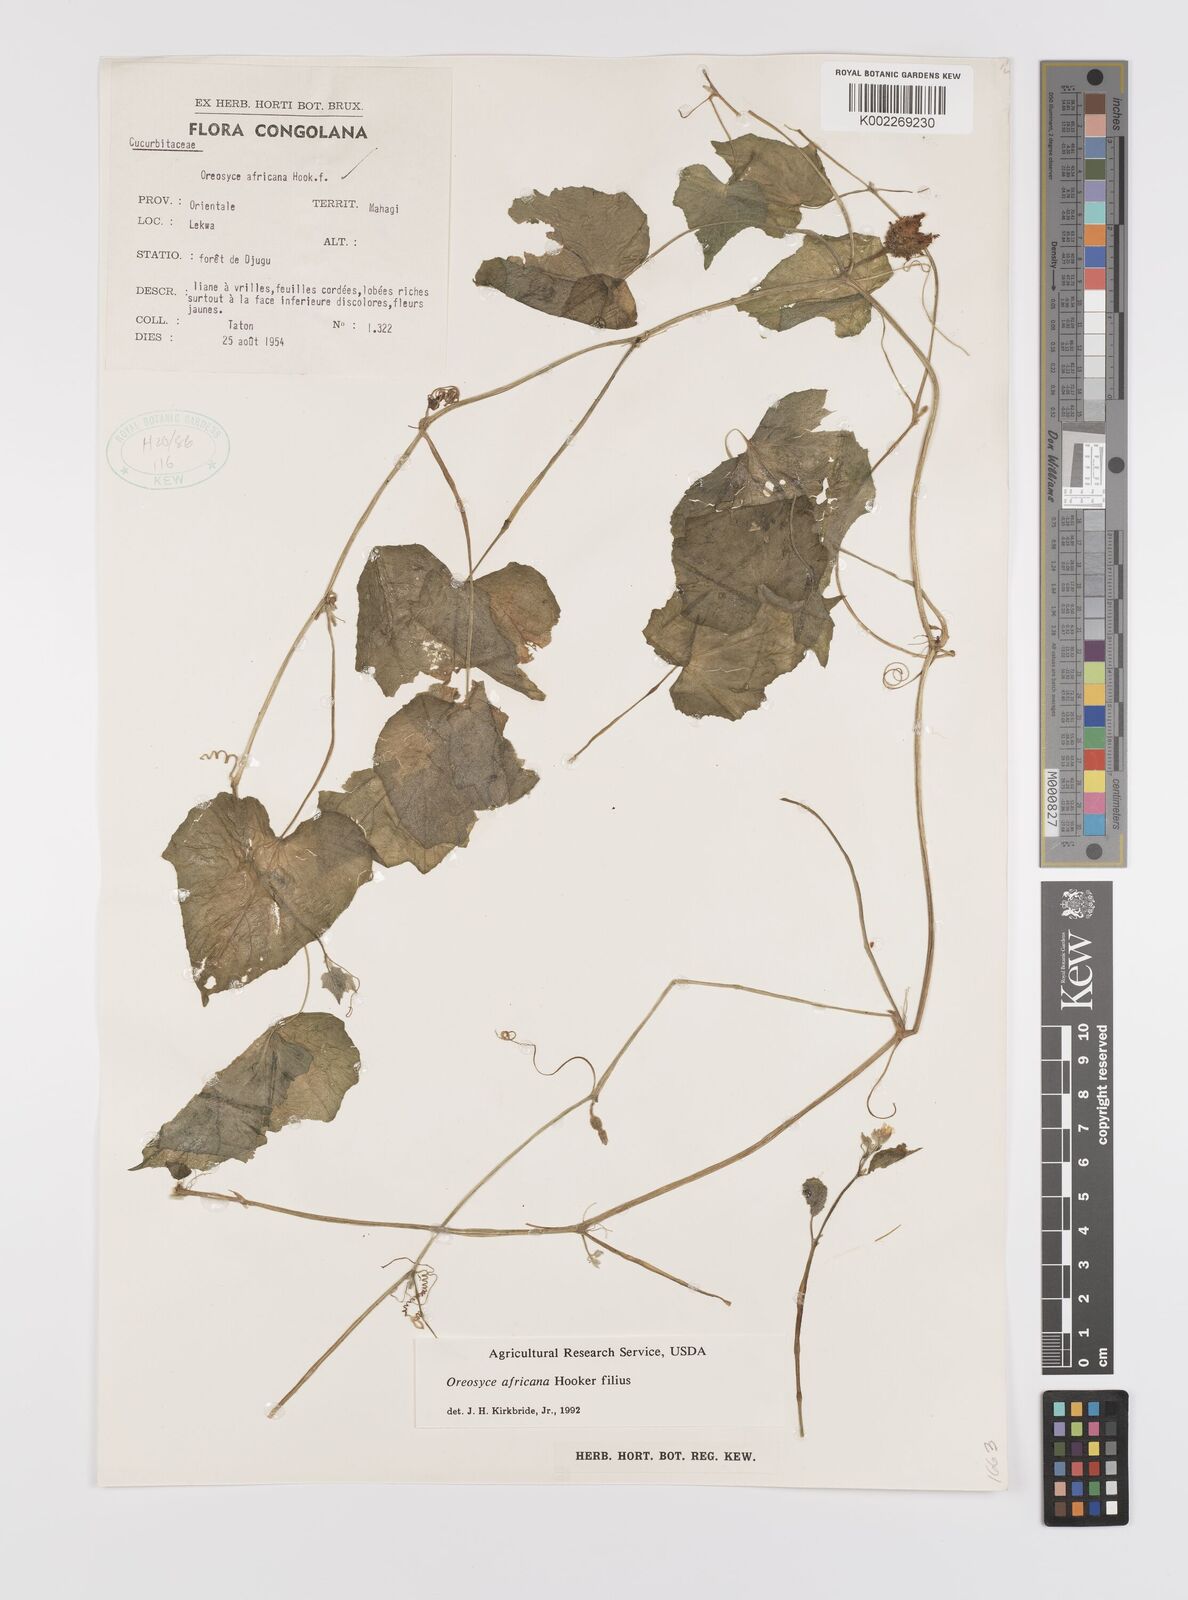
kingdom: Plantae
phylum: Tracheophyta
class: Magnoliopsida
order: Cucurbitales
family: Cucurbitaceae
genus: Cucumis
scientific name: Cucumis oreosyce
